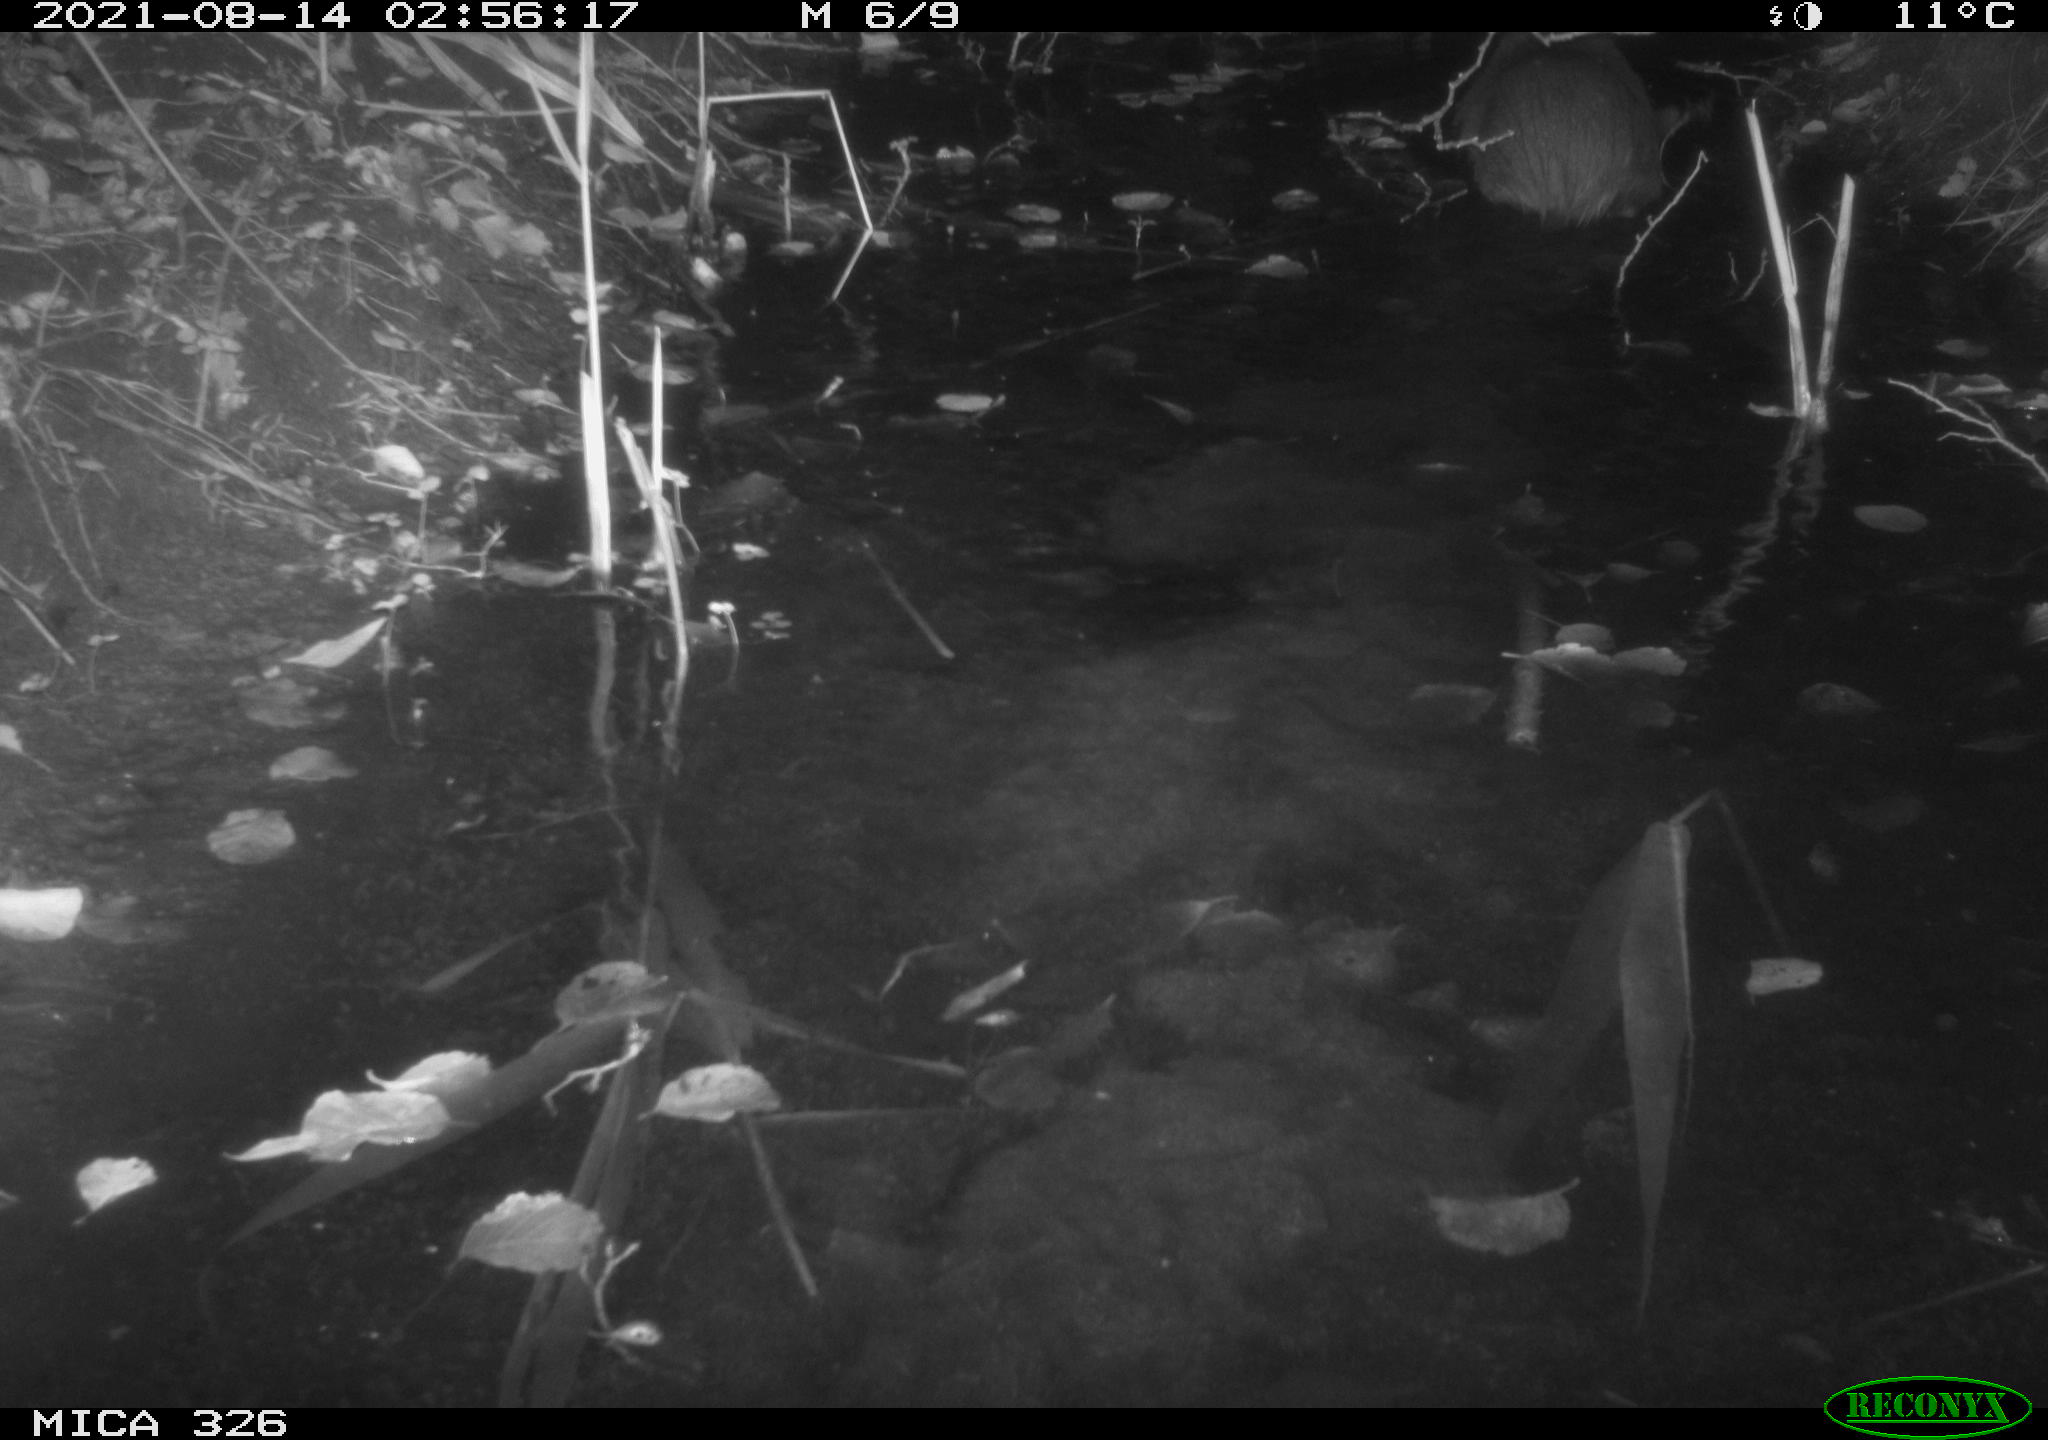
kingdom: Animalia
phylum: Chordata
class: Mammalia
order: Rodentia
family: Myocastoridae
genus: Myocastor
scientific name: Myocastor coypus
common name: Coypu
